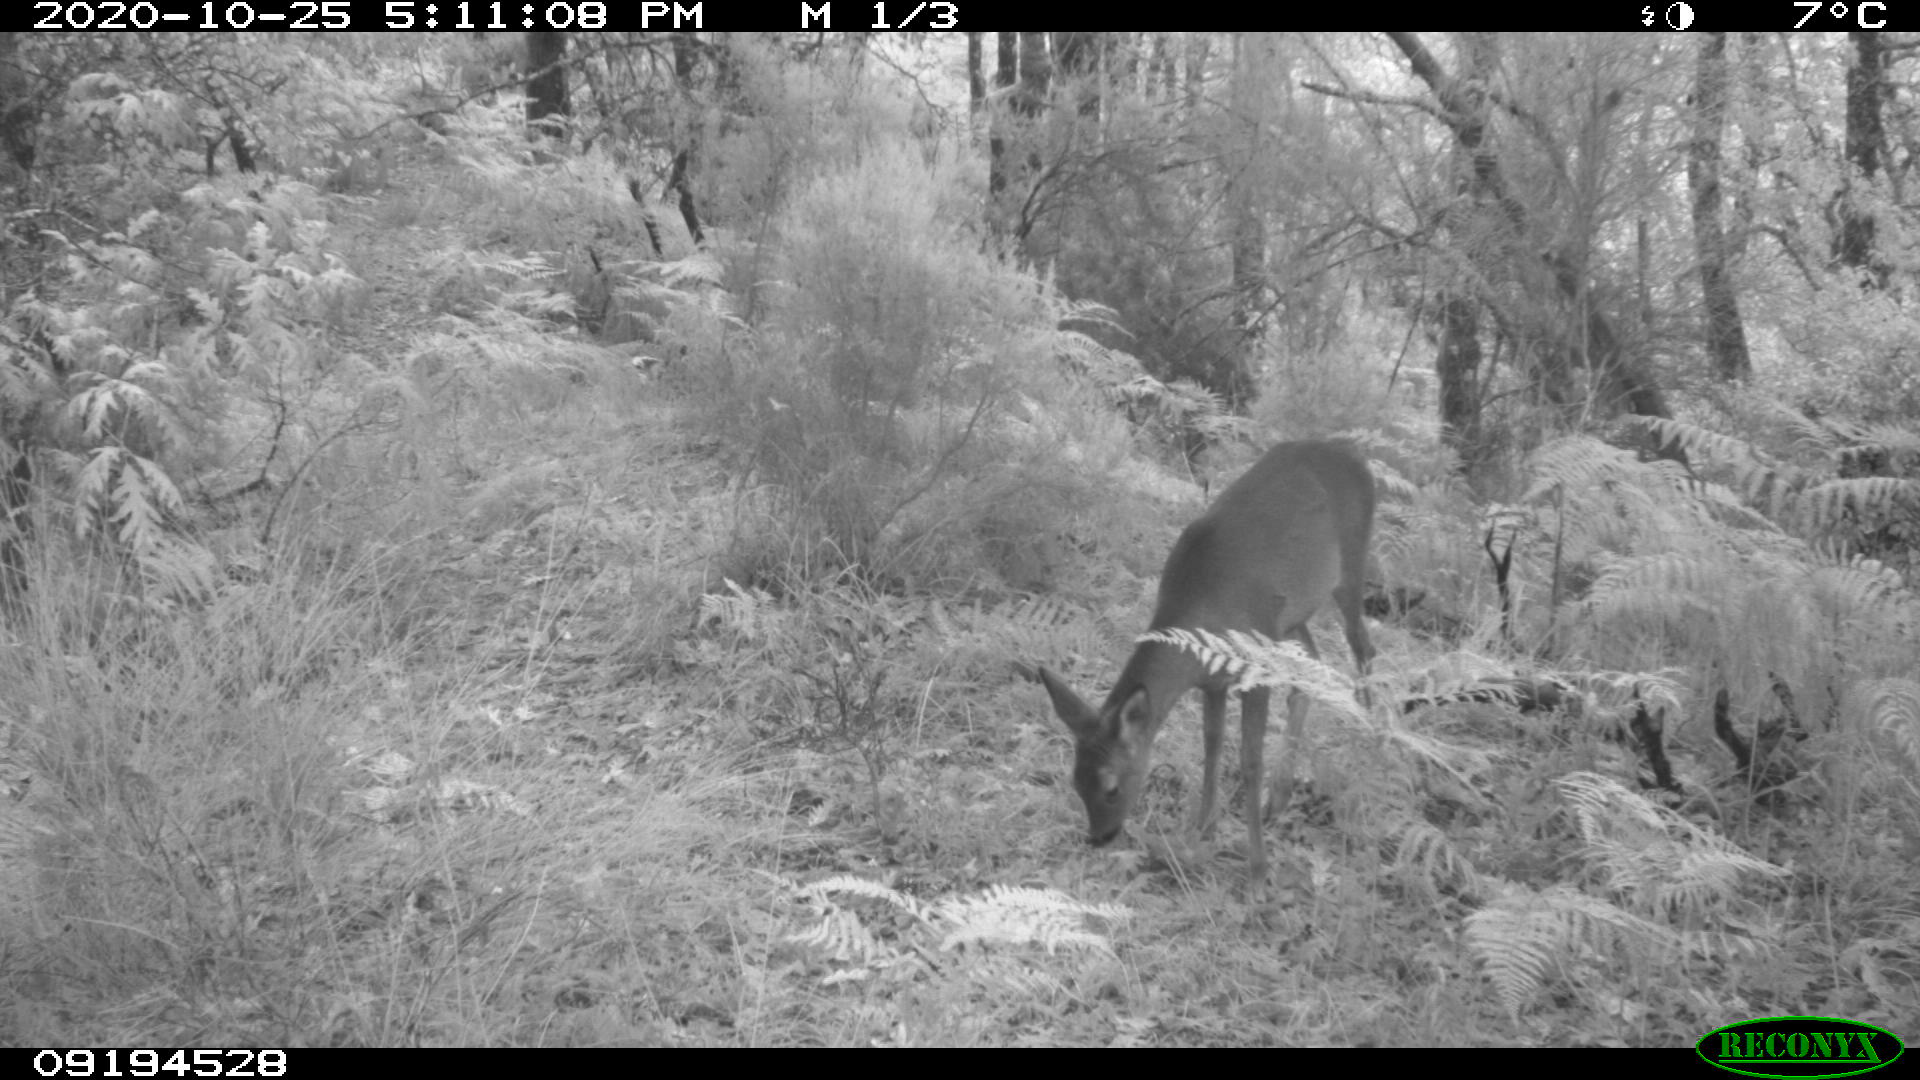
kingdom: Animalia
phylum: Chordata
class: Mammalia
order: Artiodactyla
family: Cervidae
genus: Capreolus
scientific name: Capreolus capreolus
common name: Western roe deer
